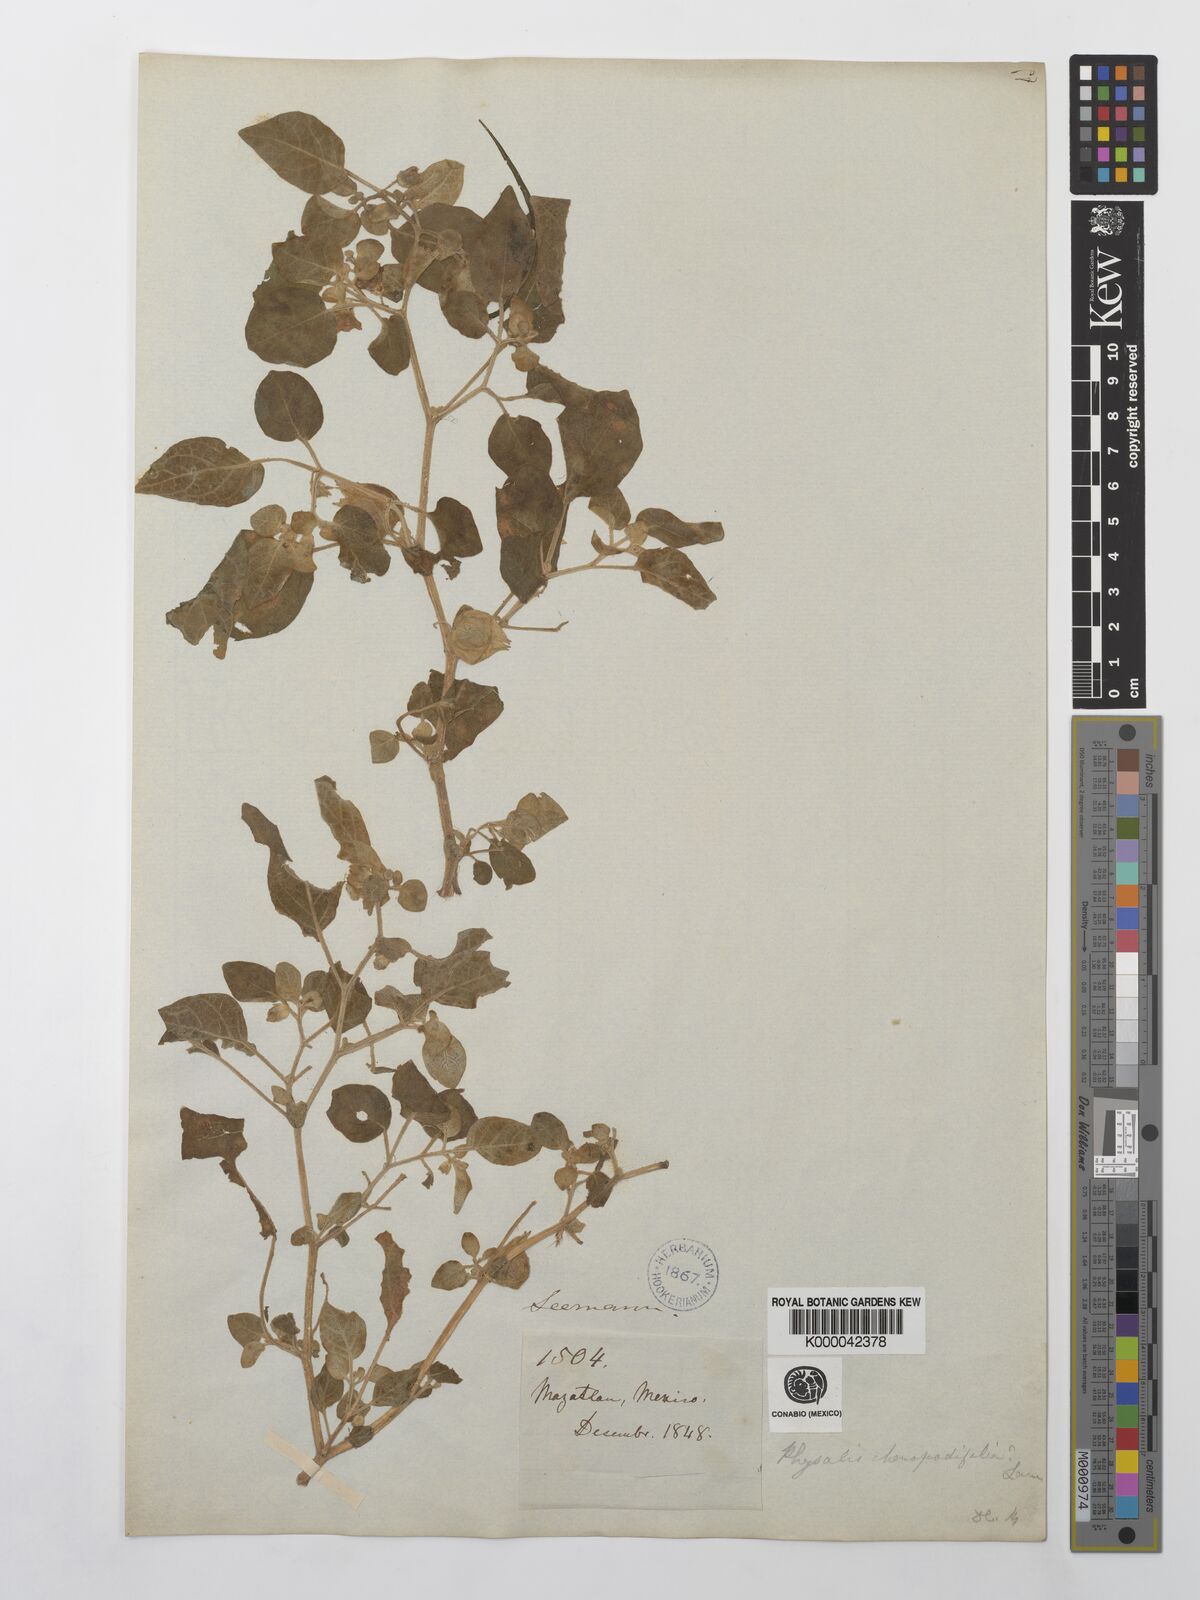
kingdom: Plantae
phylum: Tracheophyta
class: Magnoliopsida
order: Solanales
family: Solanaceae
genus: Physalis
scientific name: Physalis
